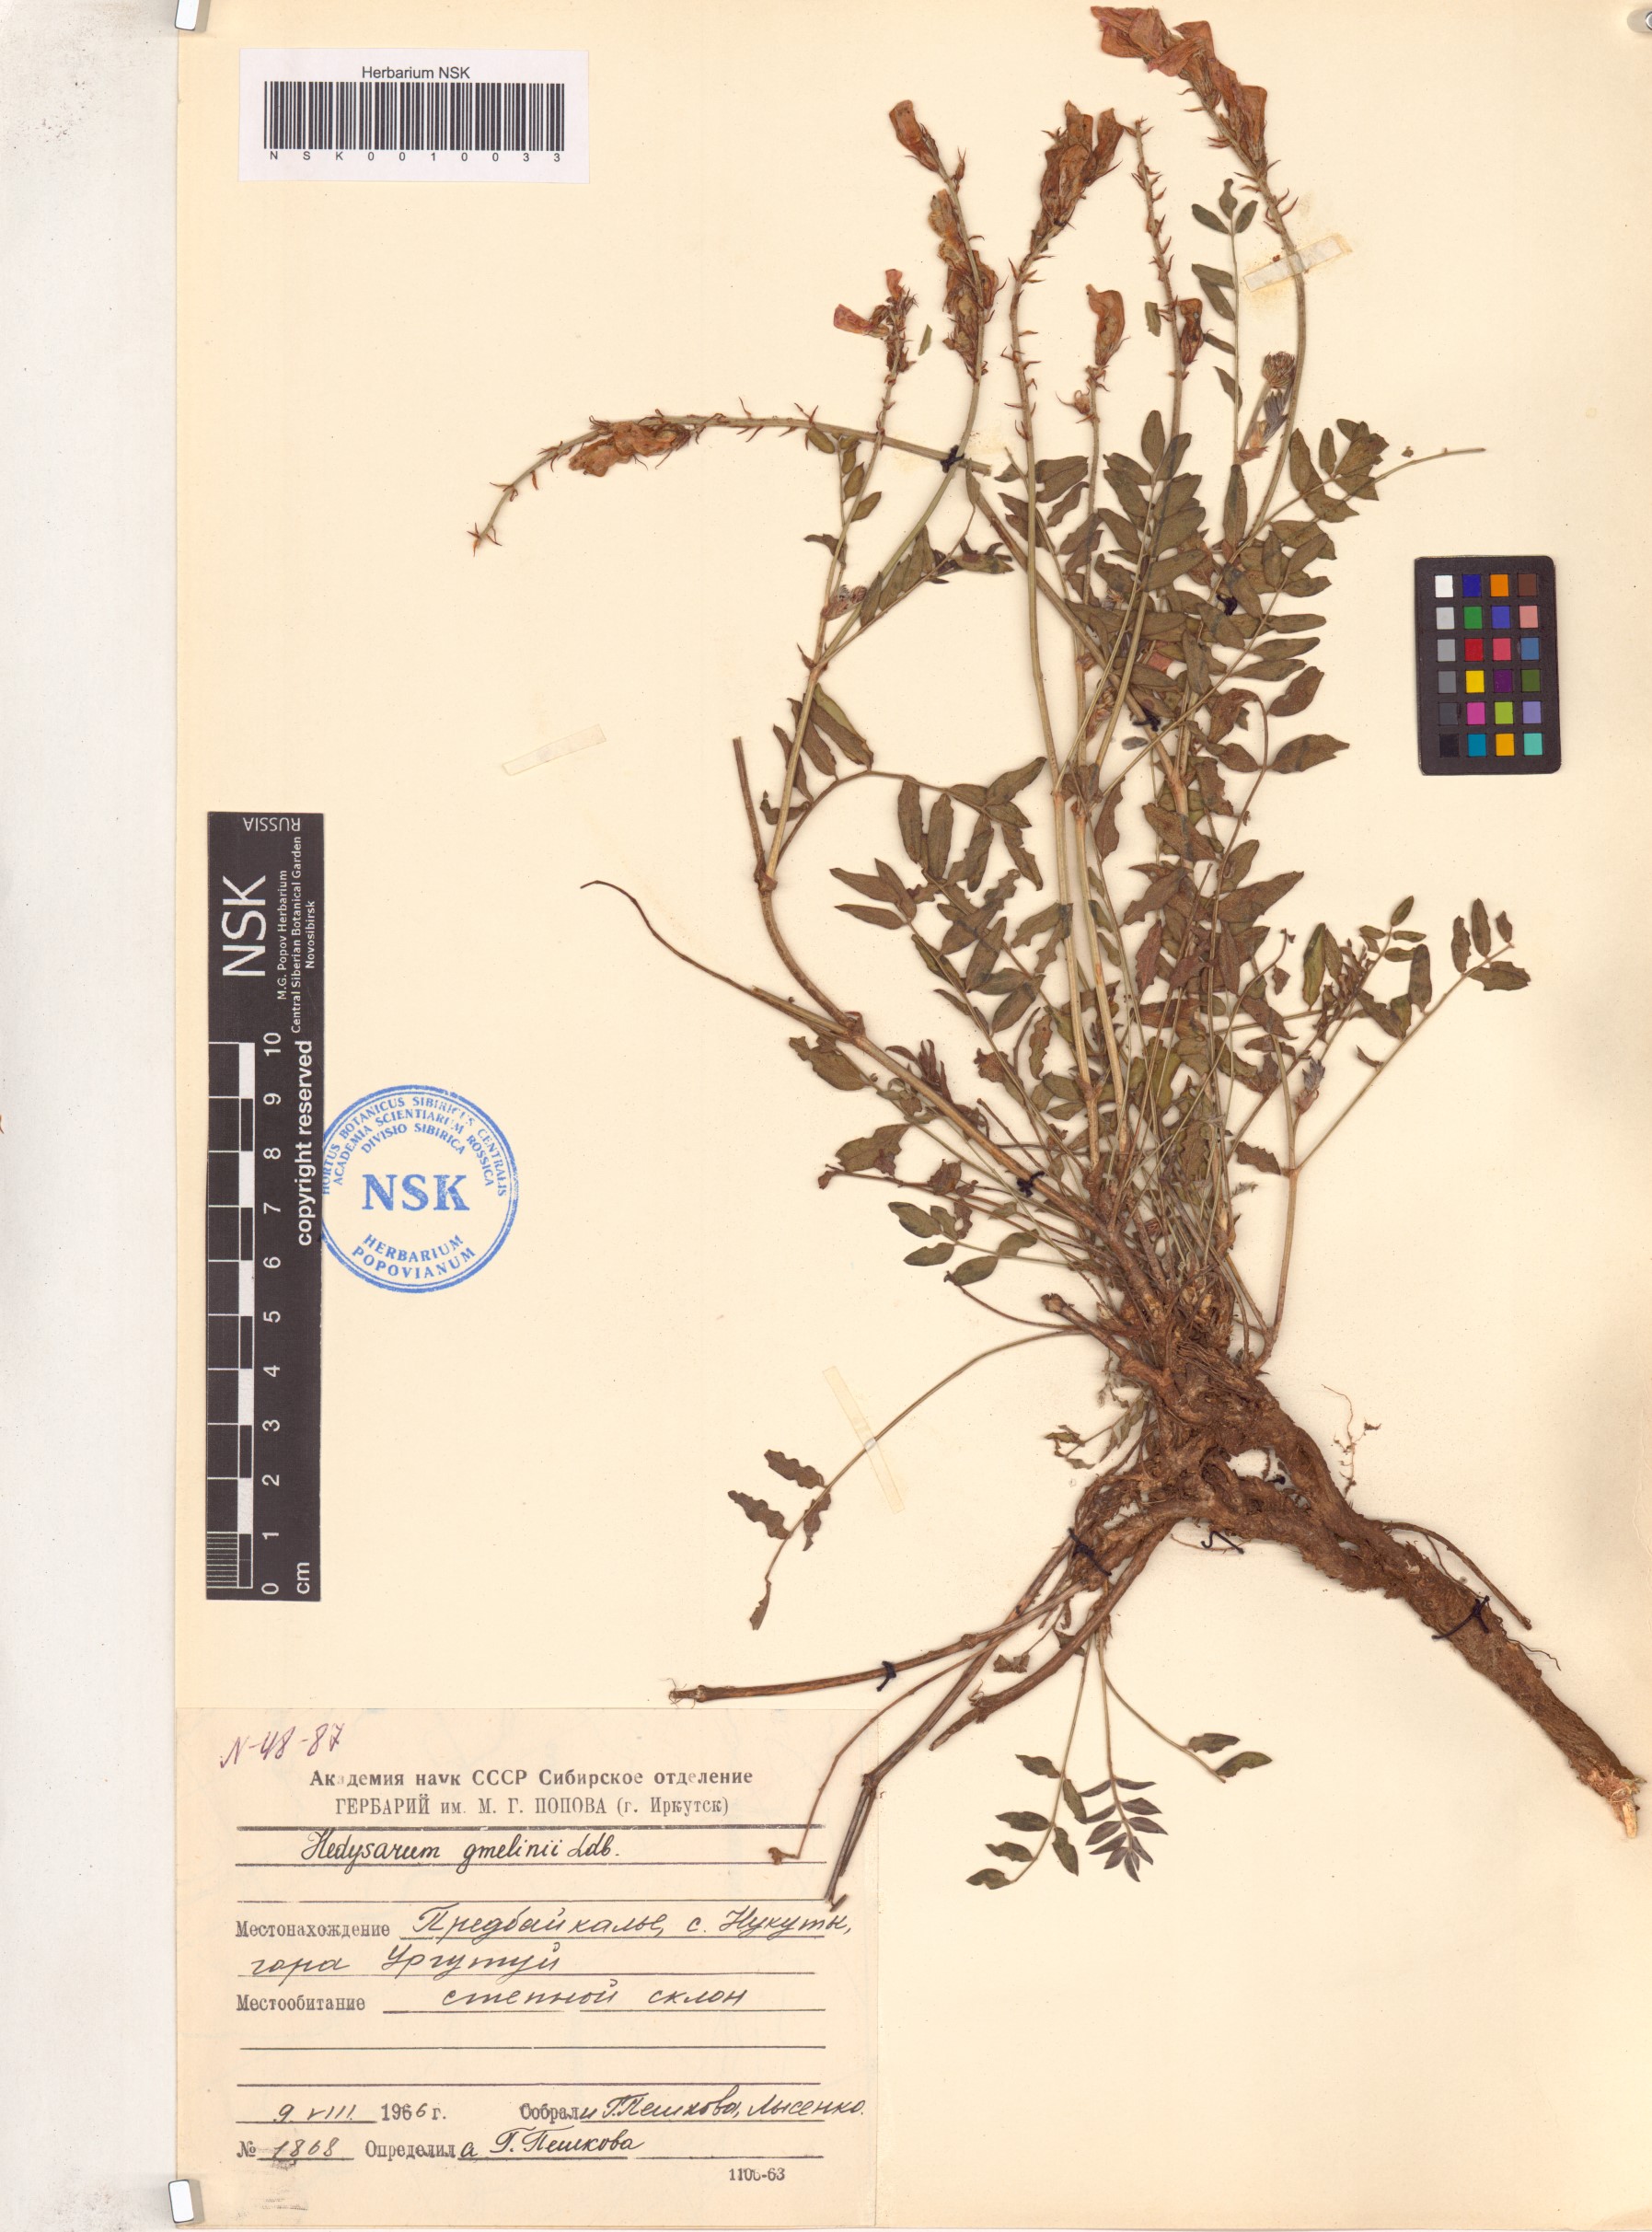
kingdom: Plantae
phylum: Tracheophyta
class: Magnoliopsida
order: Fabales
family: Fabaceae
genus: Hedysarum
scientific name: Hedysarum gmelinii
